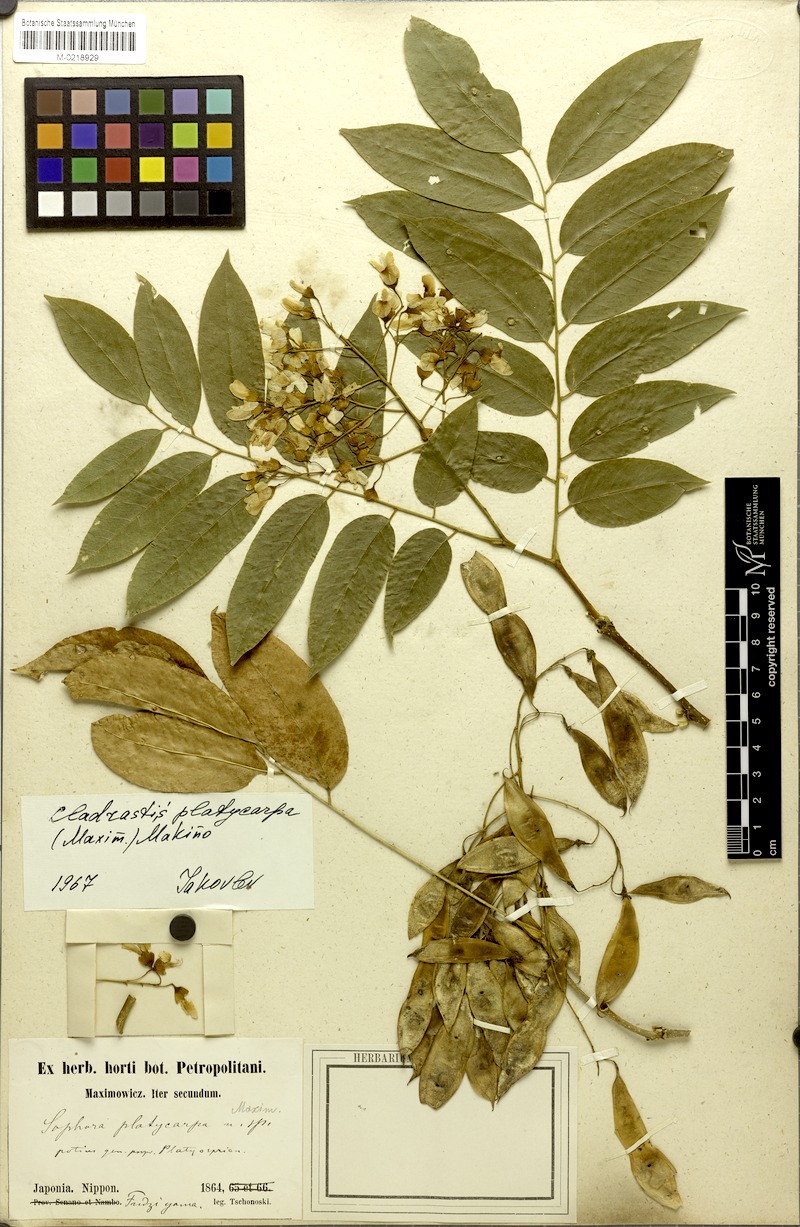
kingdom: Plantae
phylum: Tracheophyta
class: Magnoliopsida
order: Fabales
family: Fabaceae
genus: Platyosprion
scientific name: Platyosprion platycarpum
